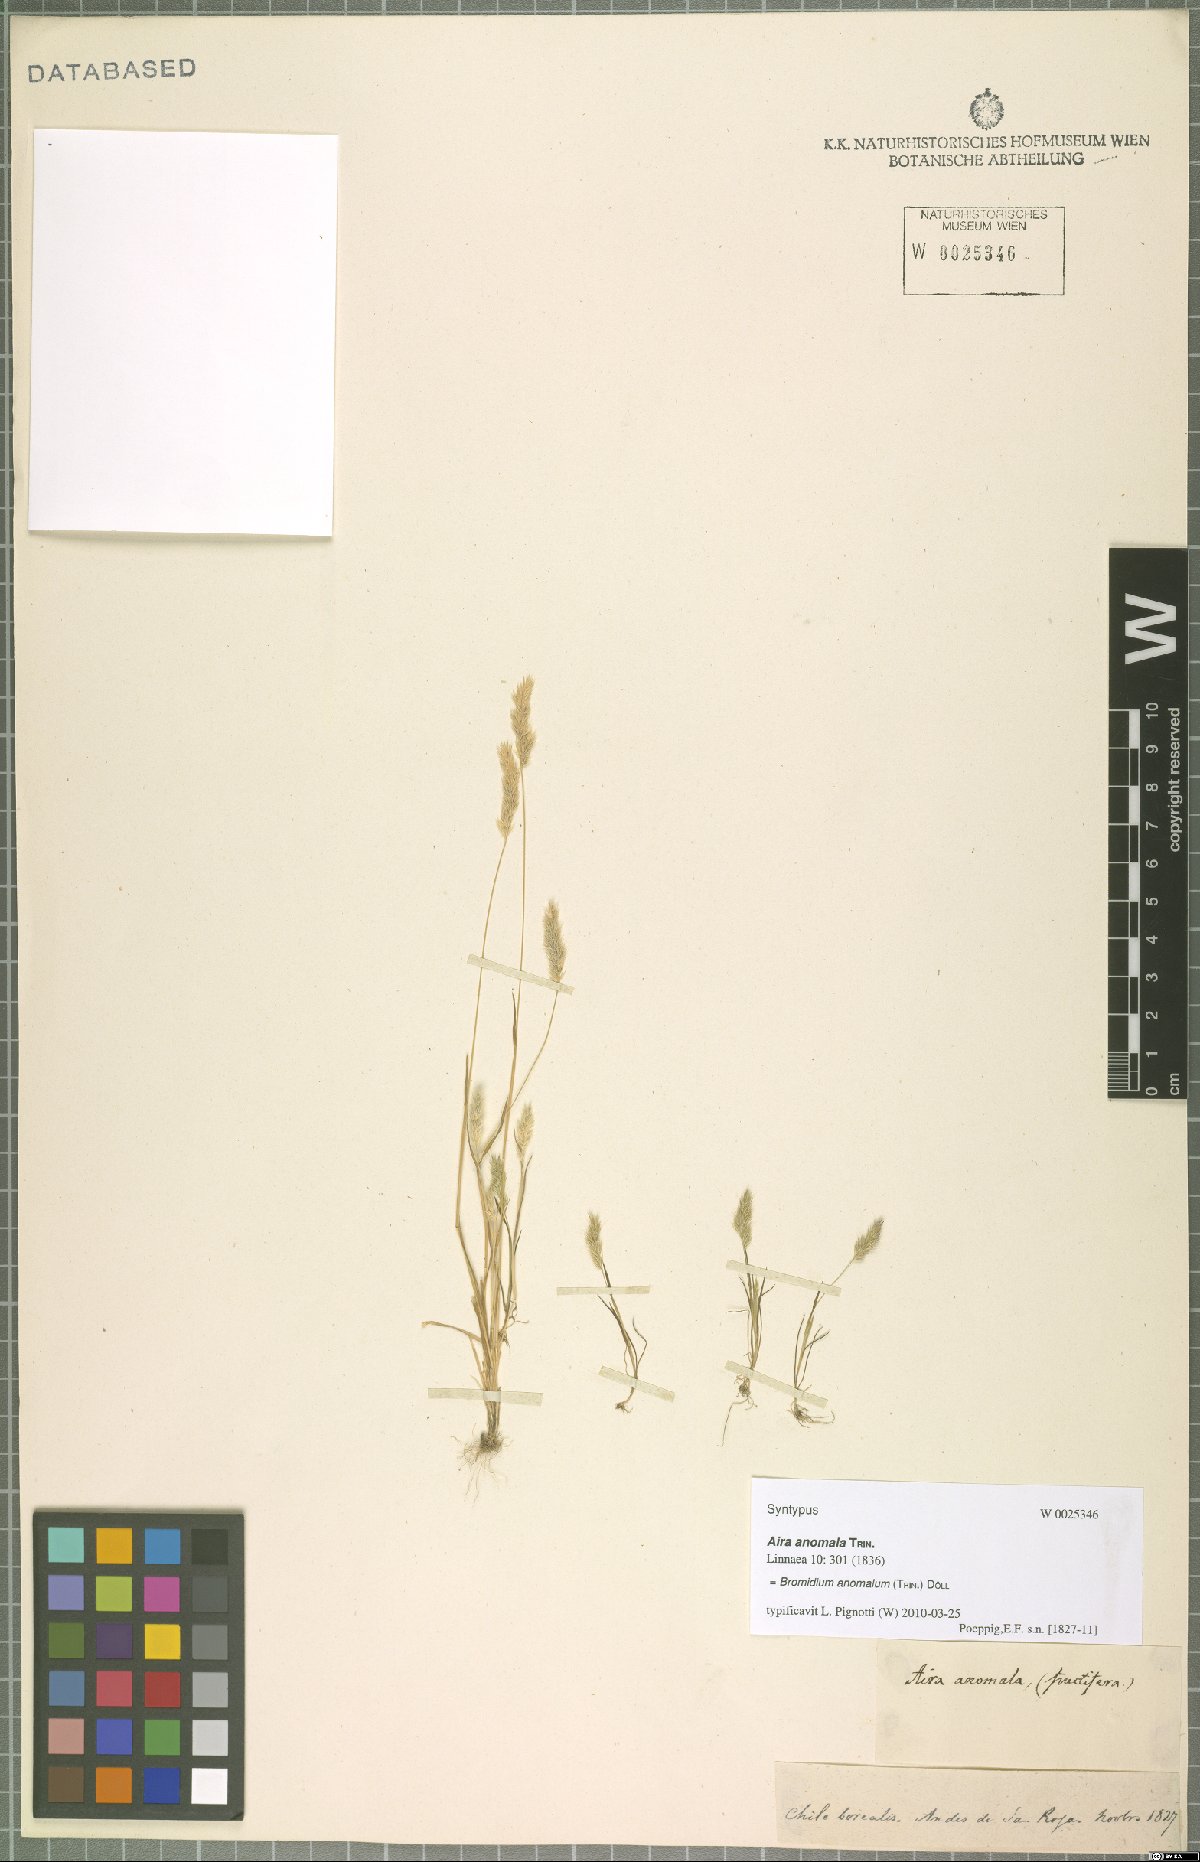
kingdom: Plantae
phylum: Tracheophyta
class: Liliopsida
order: Poales
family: Poaceae
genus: Agrostis
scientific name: Agrostis koelerioides
